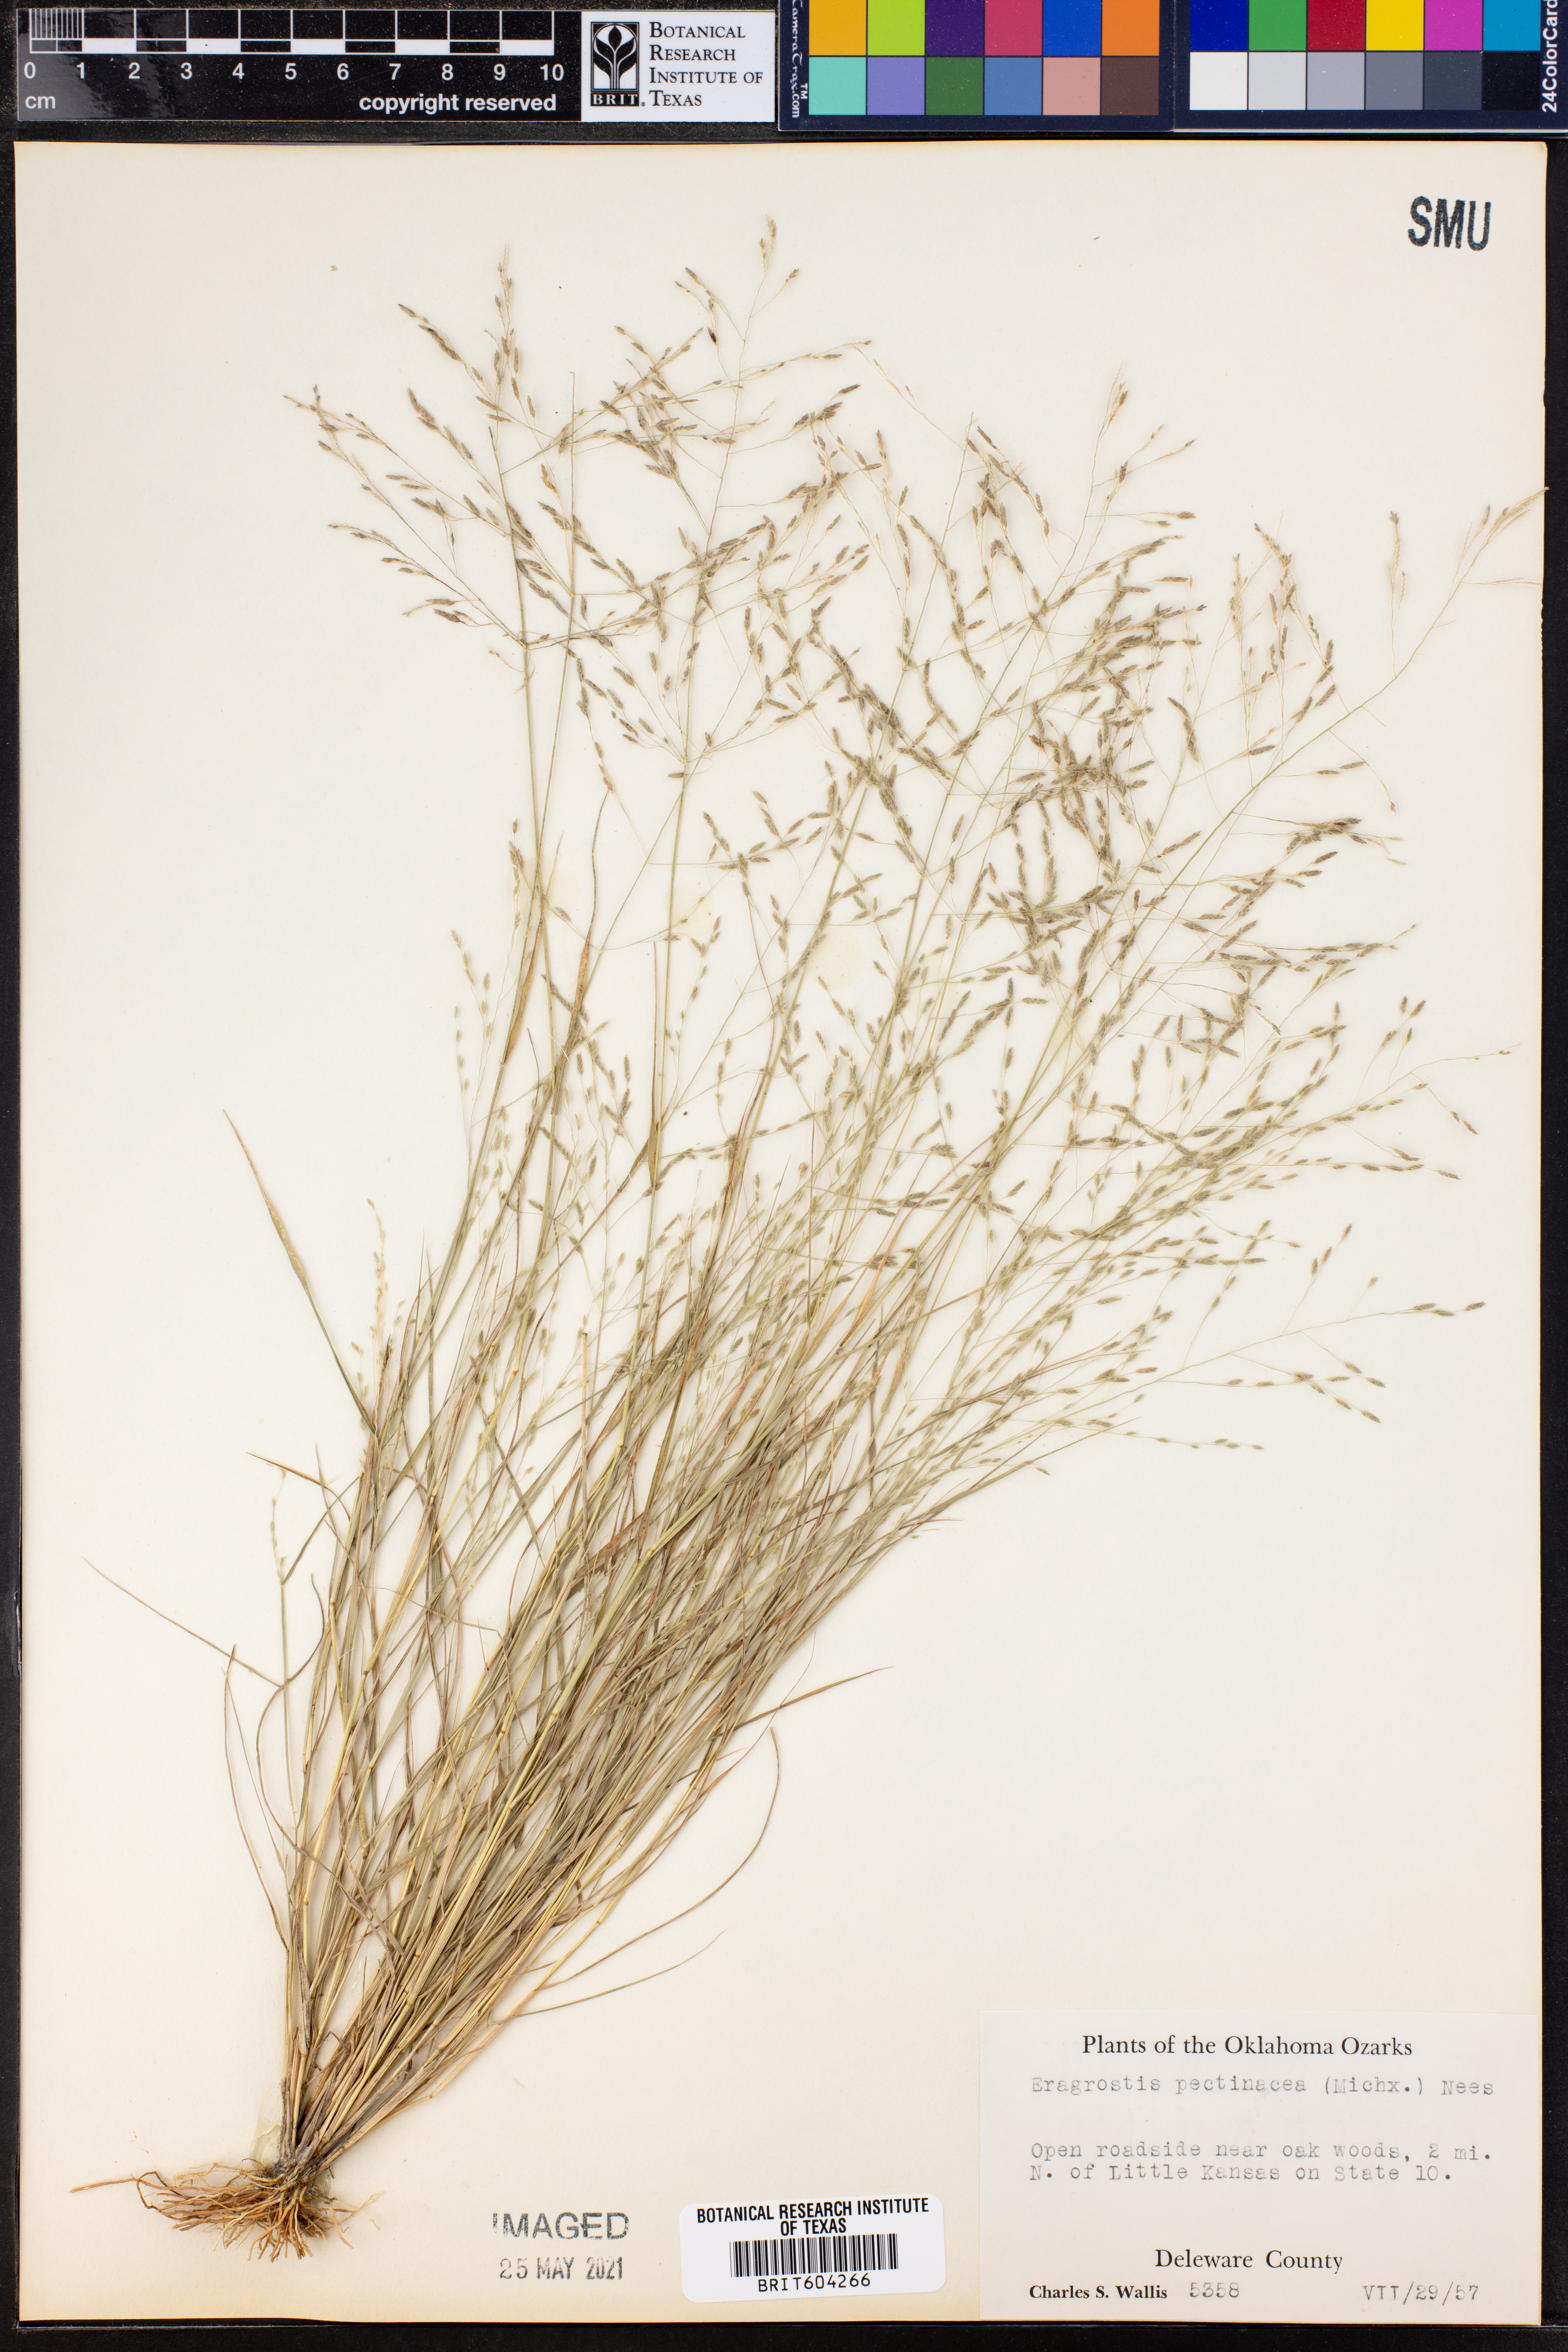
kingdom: Plantae
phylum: Tracheophyta
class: Liliopsida
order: Poales
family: Poaceae
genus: Eragrostis
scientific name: Eragrostis pectinacea
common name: Tufted lovegrass
